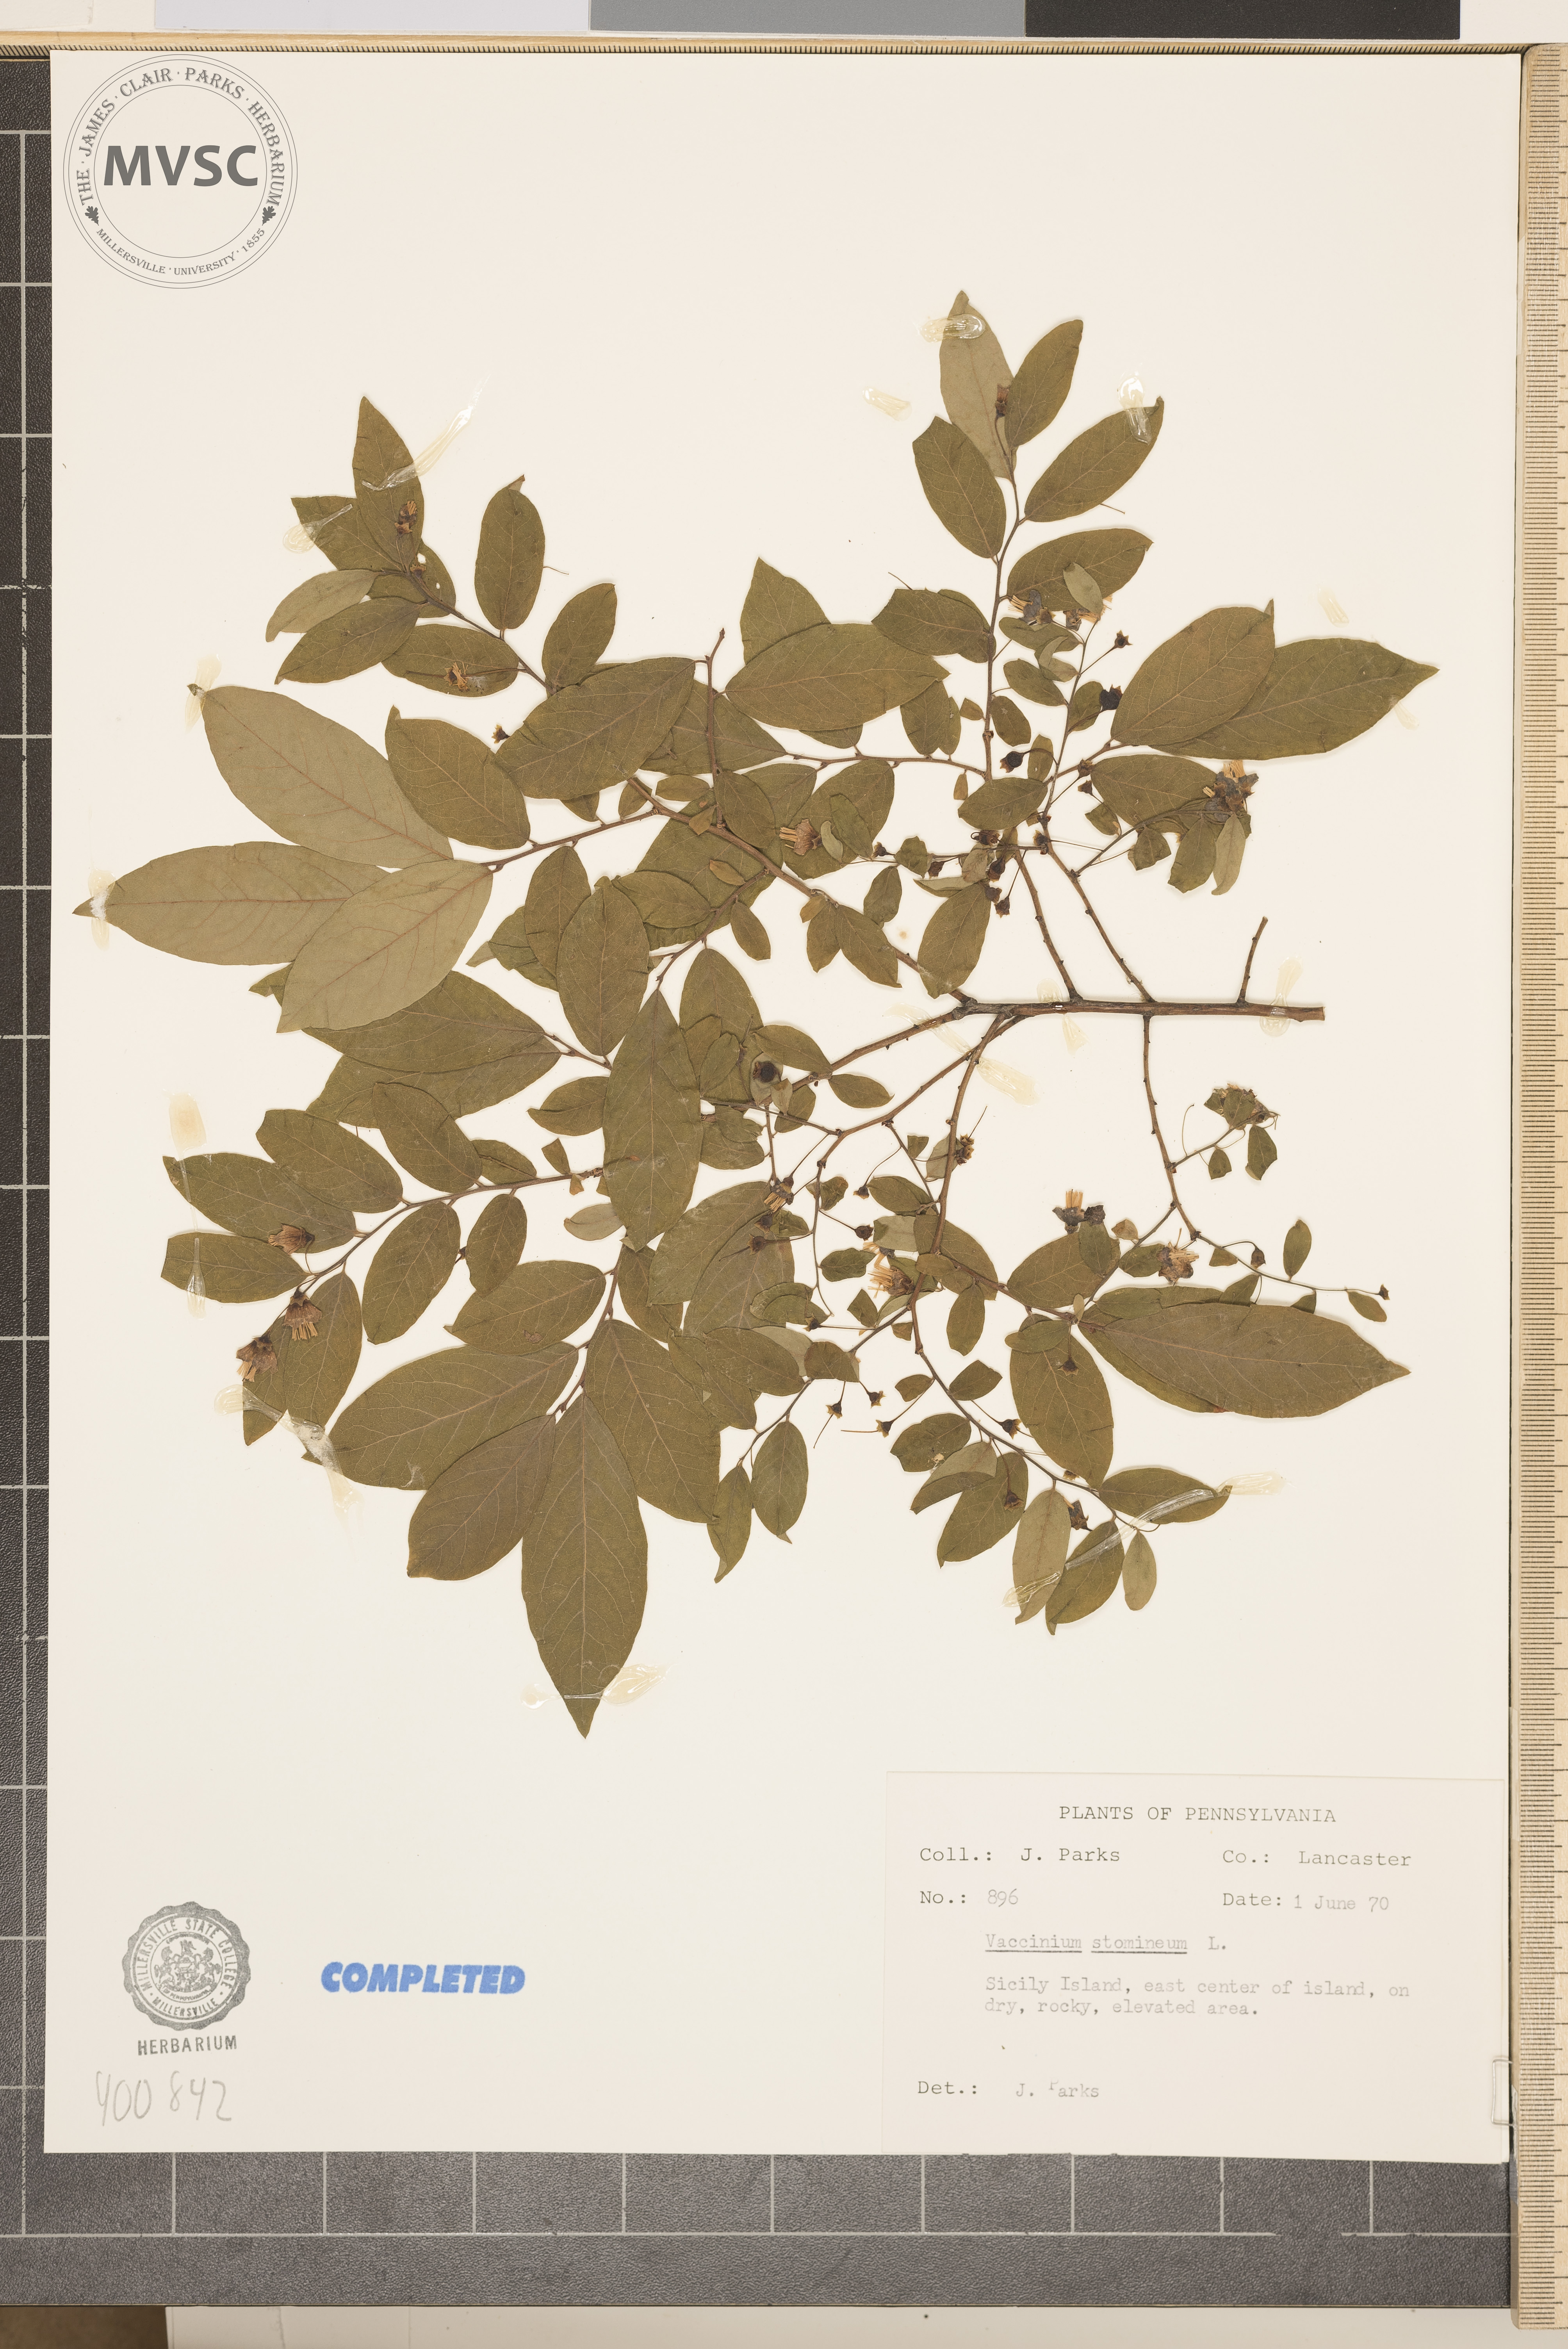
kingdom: Plantae
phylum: Tracheophyta
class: Magnoliopsida
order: Ericales
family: Ericaceae
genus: Vaccinium
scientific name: Vaccinium stamineum
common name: deerberry
